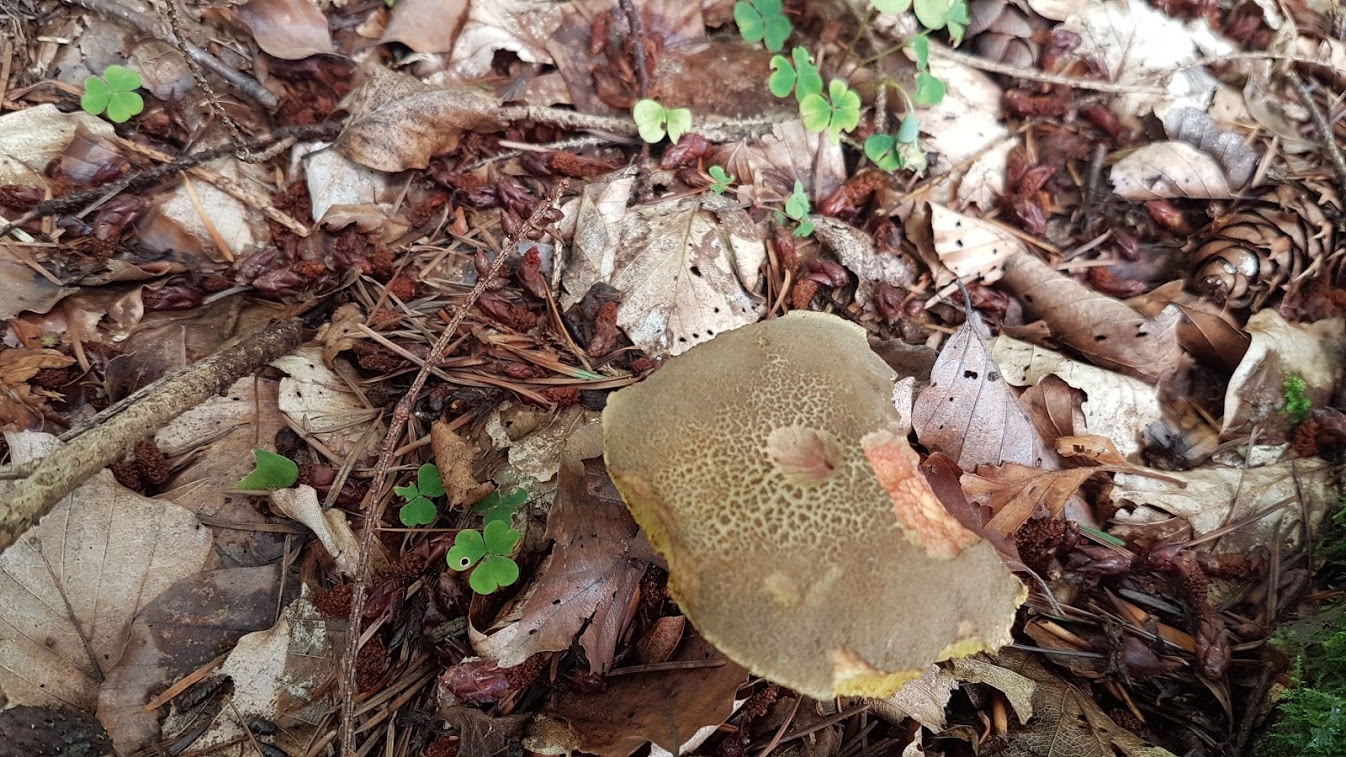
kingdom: Fungi
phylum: Basidiomycota
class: Agaricomycetes
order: Boletales
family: Boletaceae
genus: Xerocomellus
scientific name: Xerocomellus
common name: dværgrørhat
